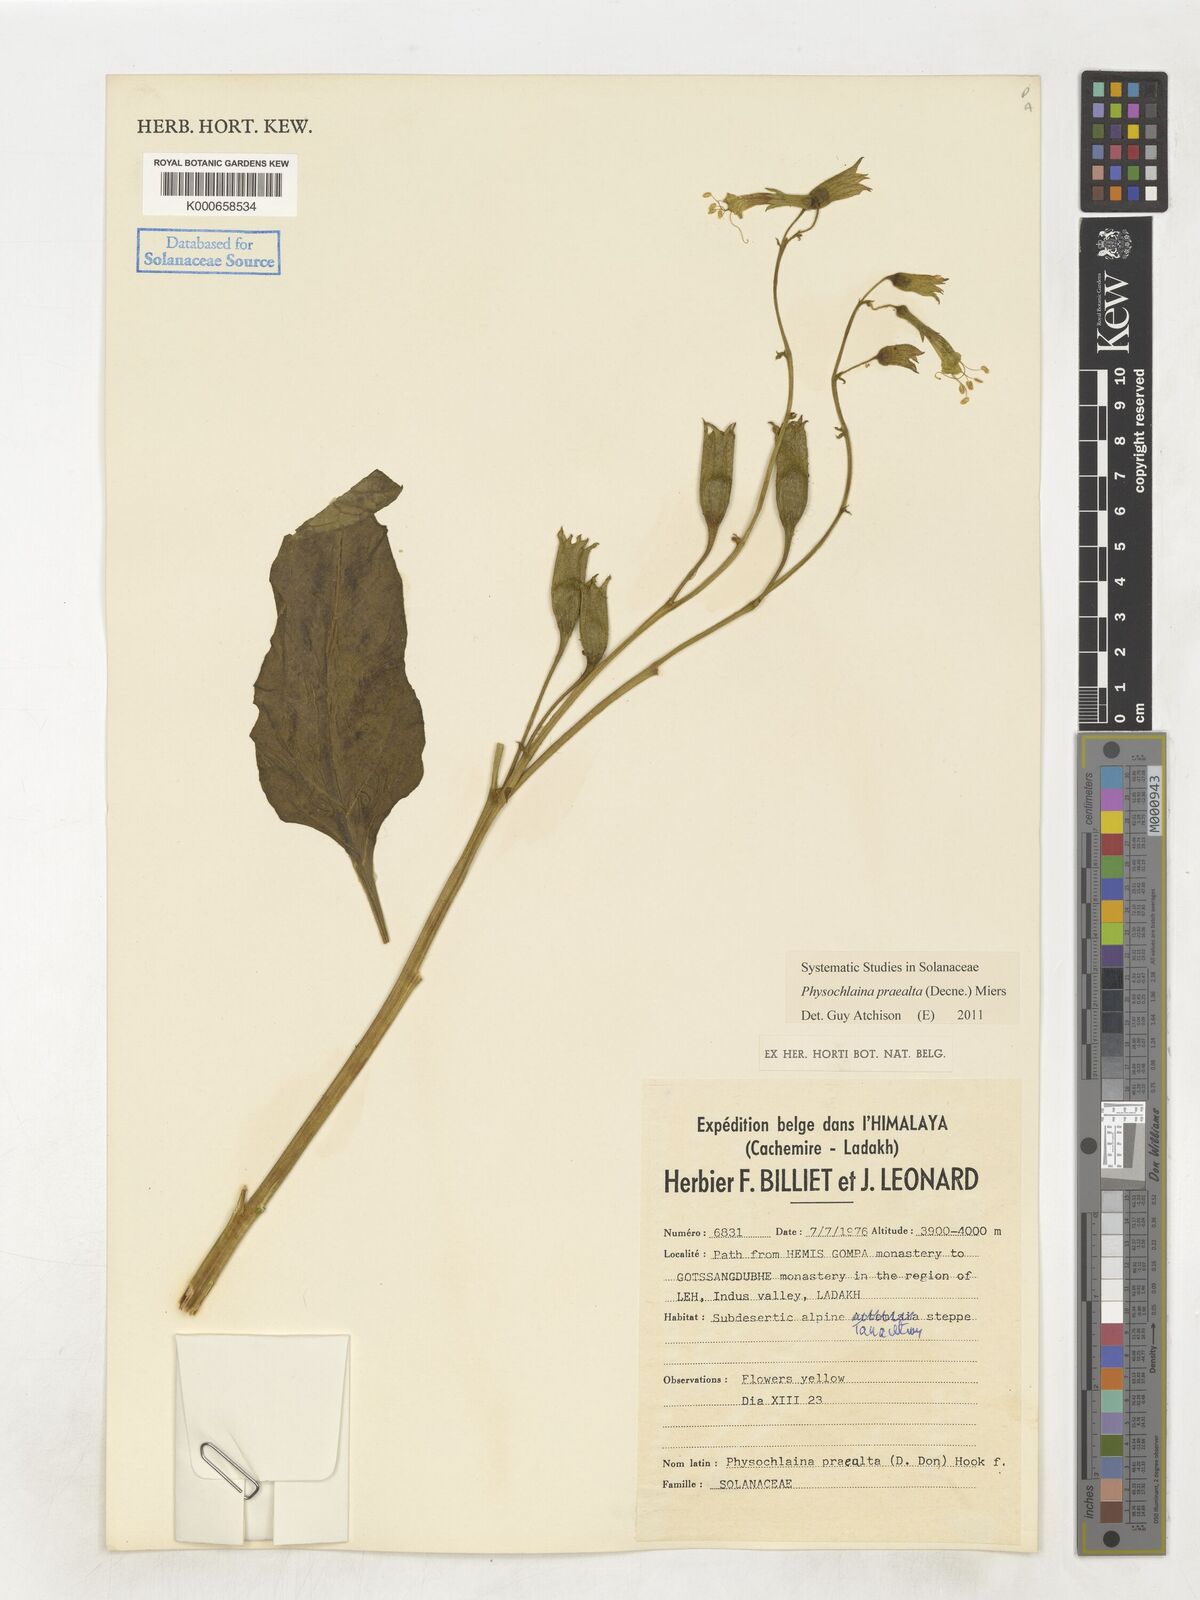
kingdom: Plantae
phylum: Tracheophyta
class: Magnoliopsida
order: Solanales
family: Solanaceae
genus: Physochlaina
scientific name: Physochlaina praealta
